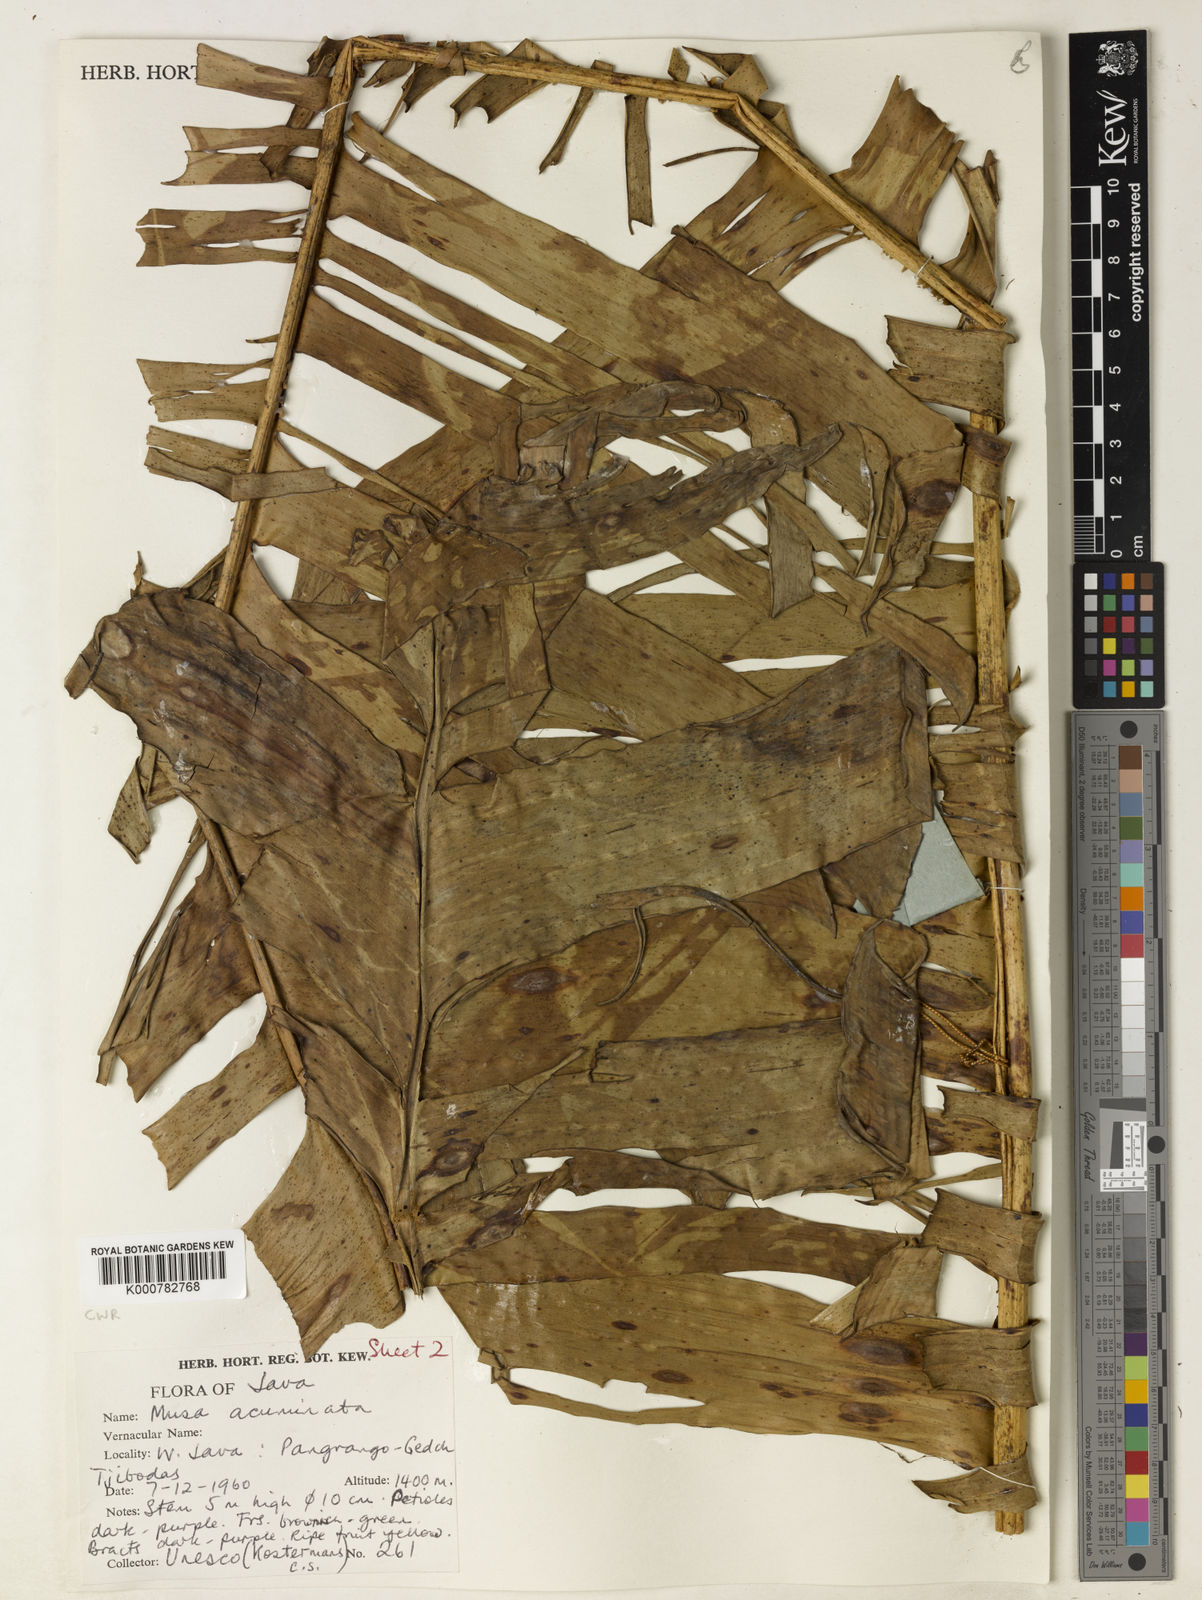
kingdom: Plantae
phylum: Tracheophyta
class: Liliopsida
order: Zingiberales
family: Musaceae
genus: Musa
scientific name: Musa acuminata
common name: Edible banana
